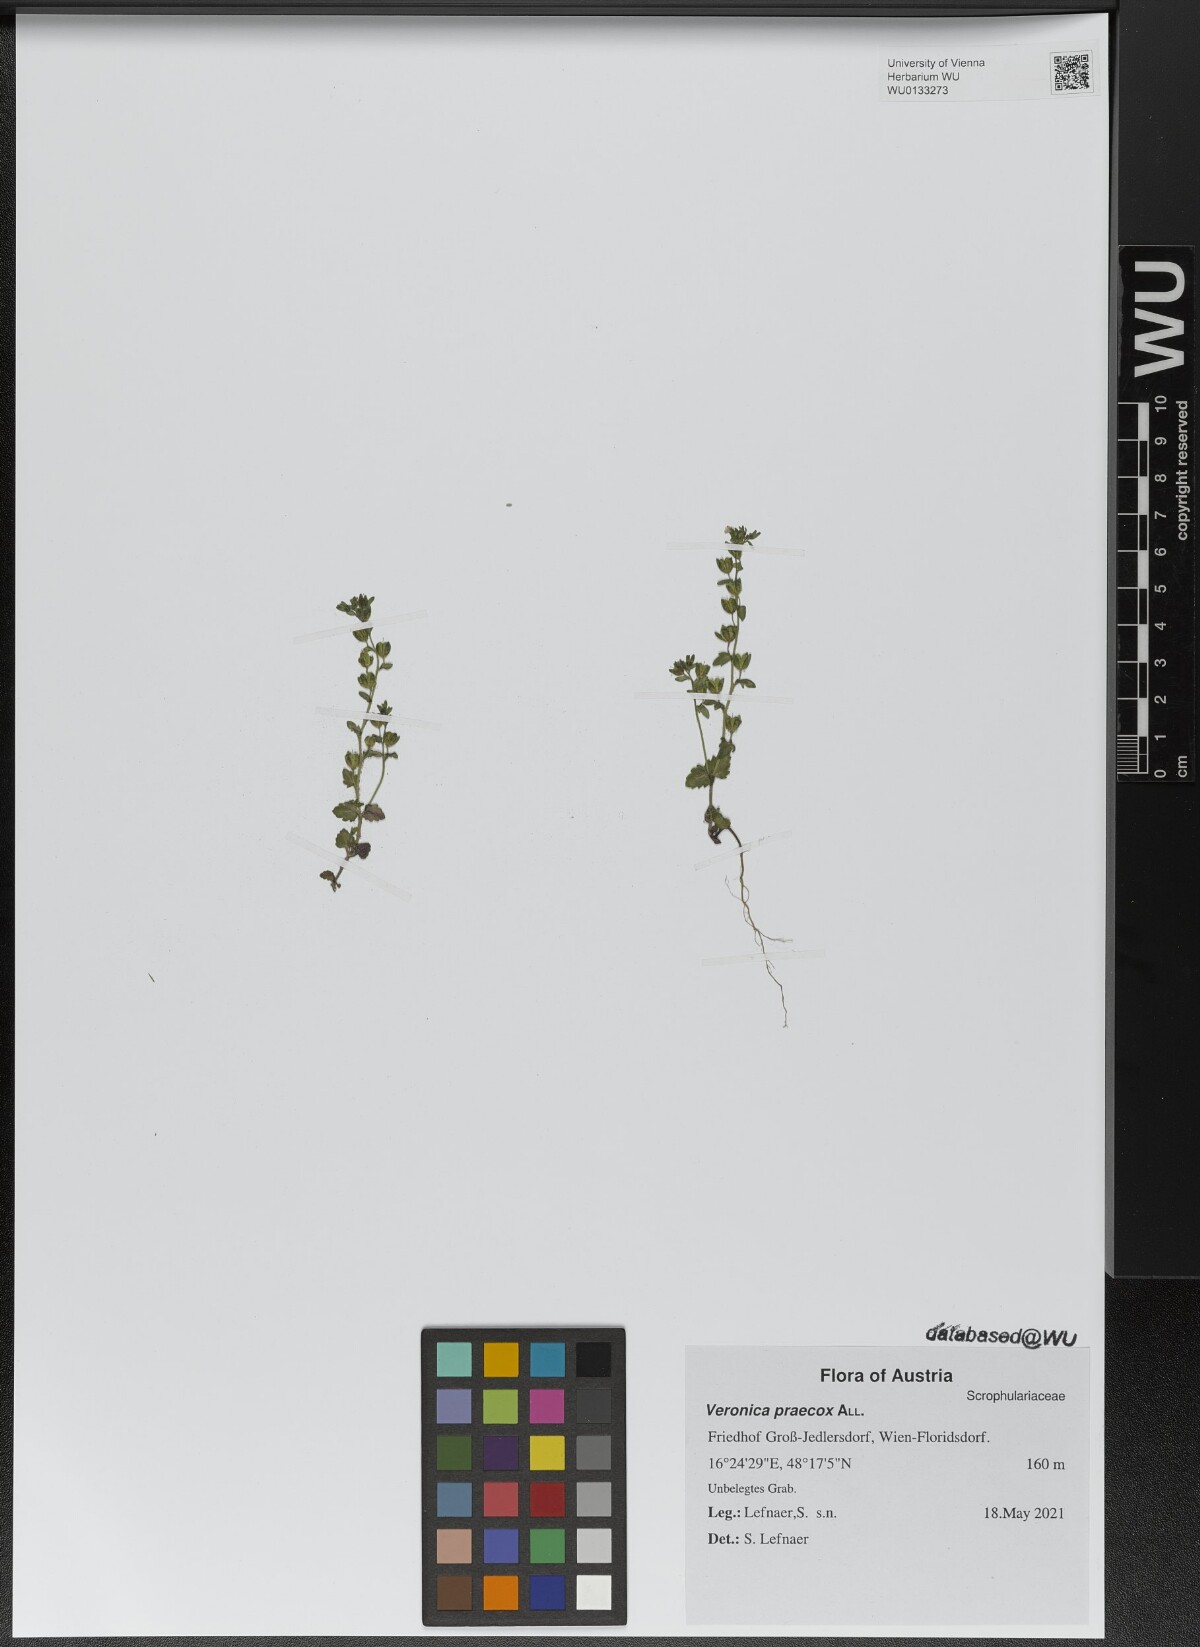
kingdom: Plantae
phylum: Tracheophyta
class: Magnoliopsida
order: Lamiales
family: Plantaginaceae
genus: Veronica
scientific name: Veronica praecox
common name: Breckland speedwell
